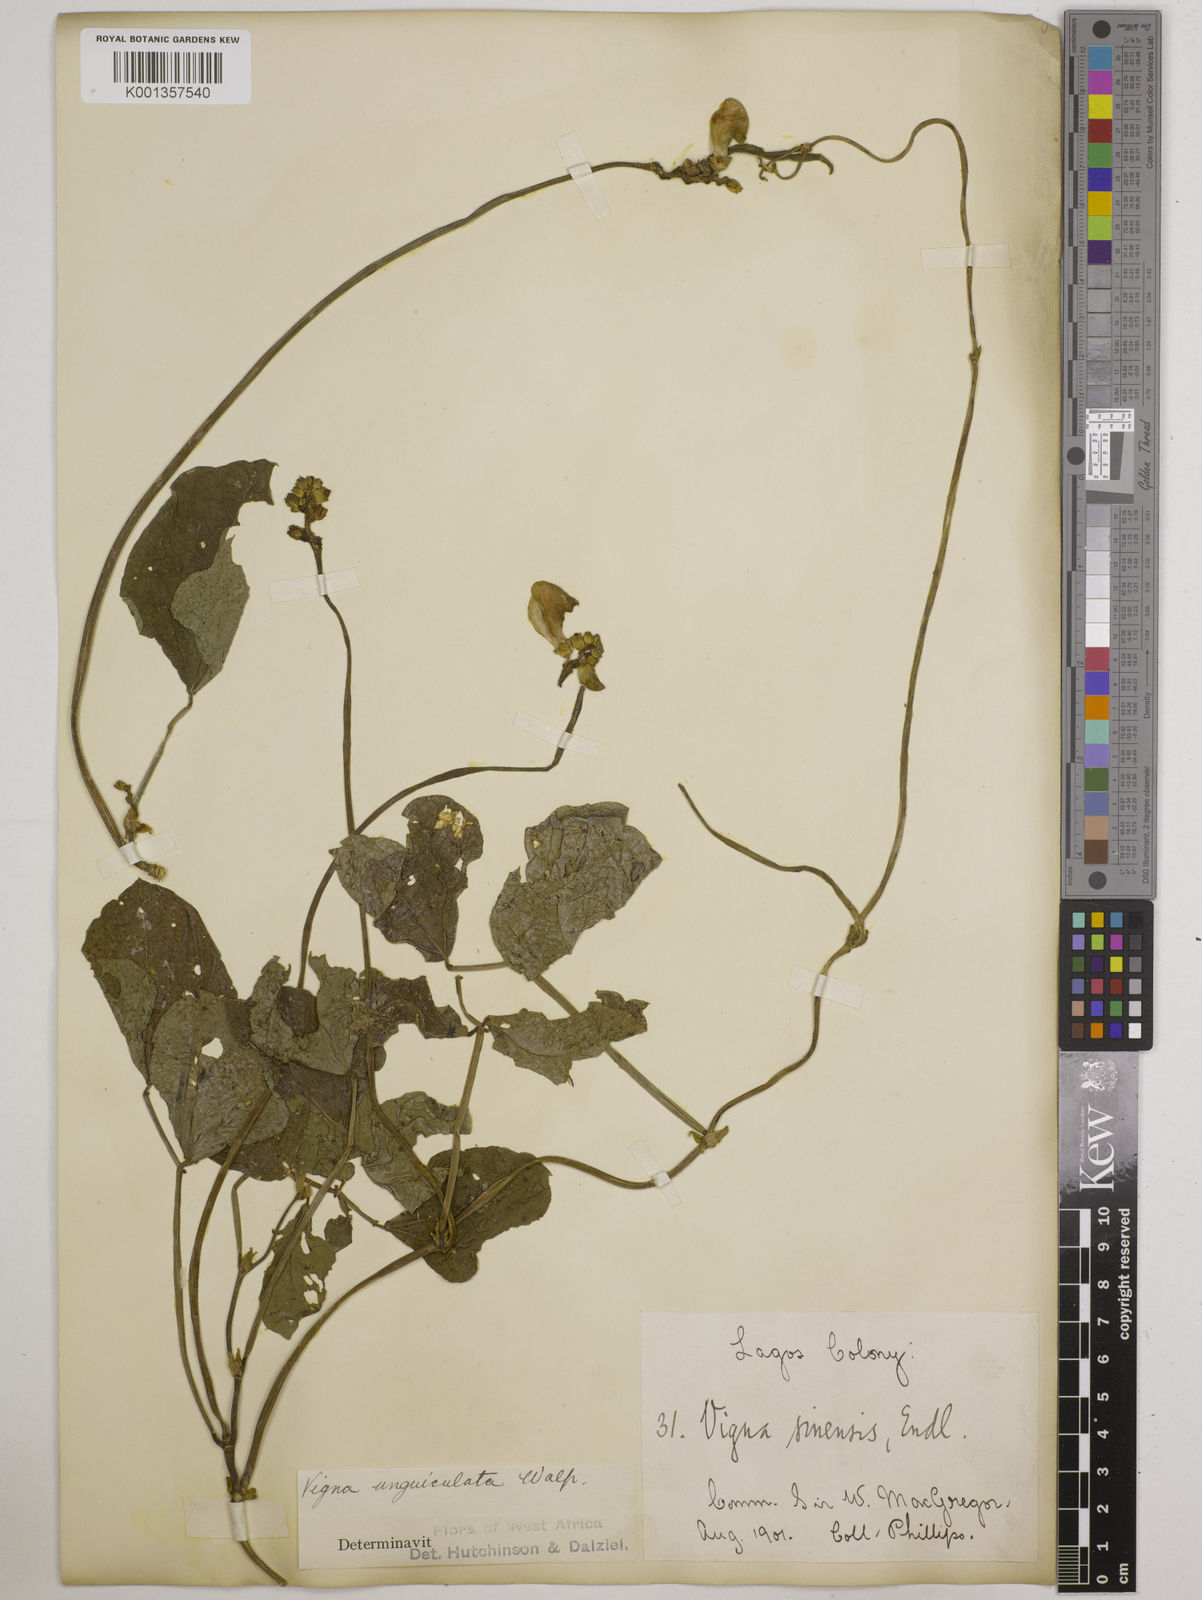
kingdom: Plantae
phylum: Tracheophyta
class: Magnoliopsida
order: Fabales
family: Fabaceae
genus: Vigna
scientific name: Vigna
